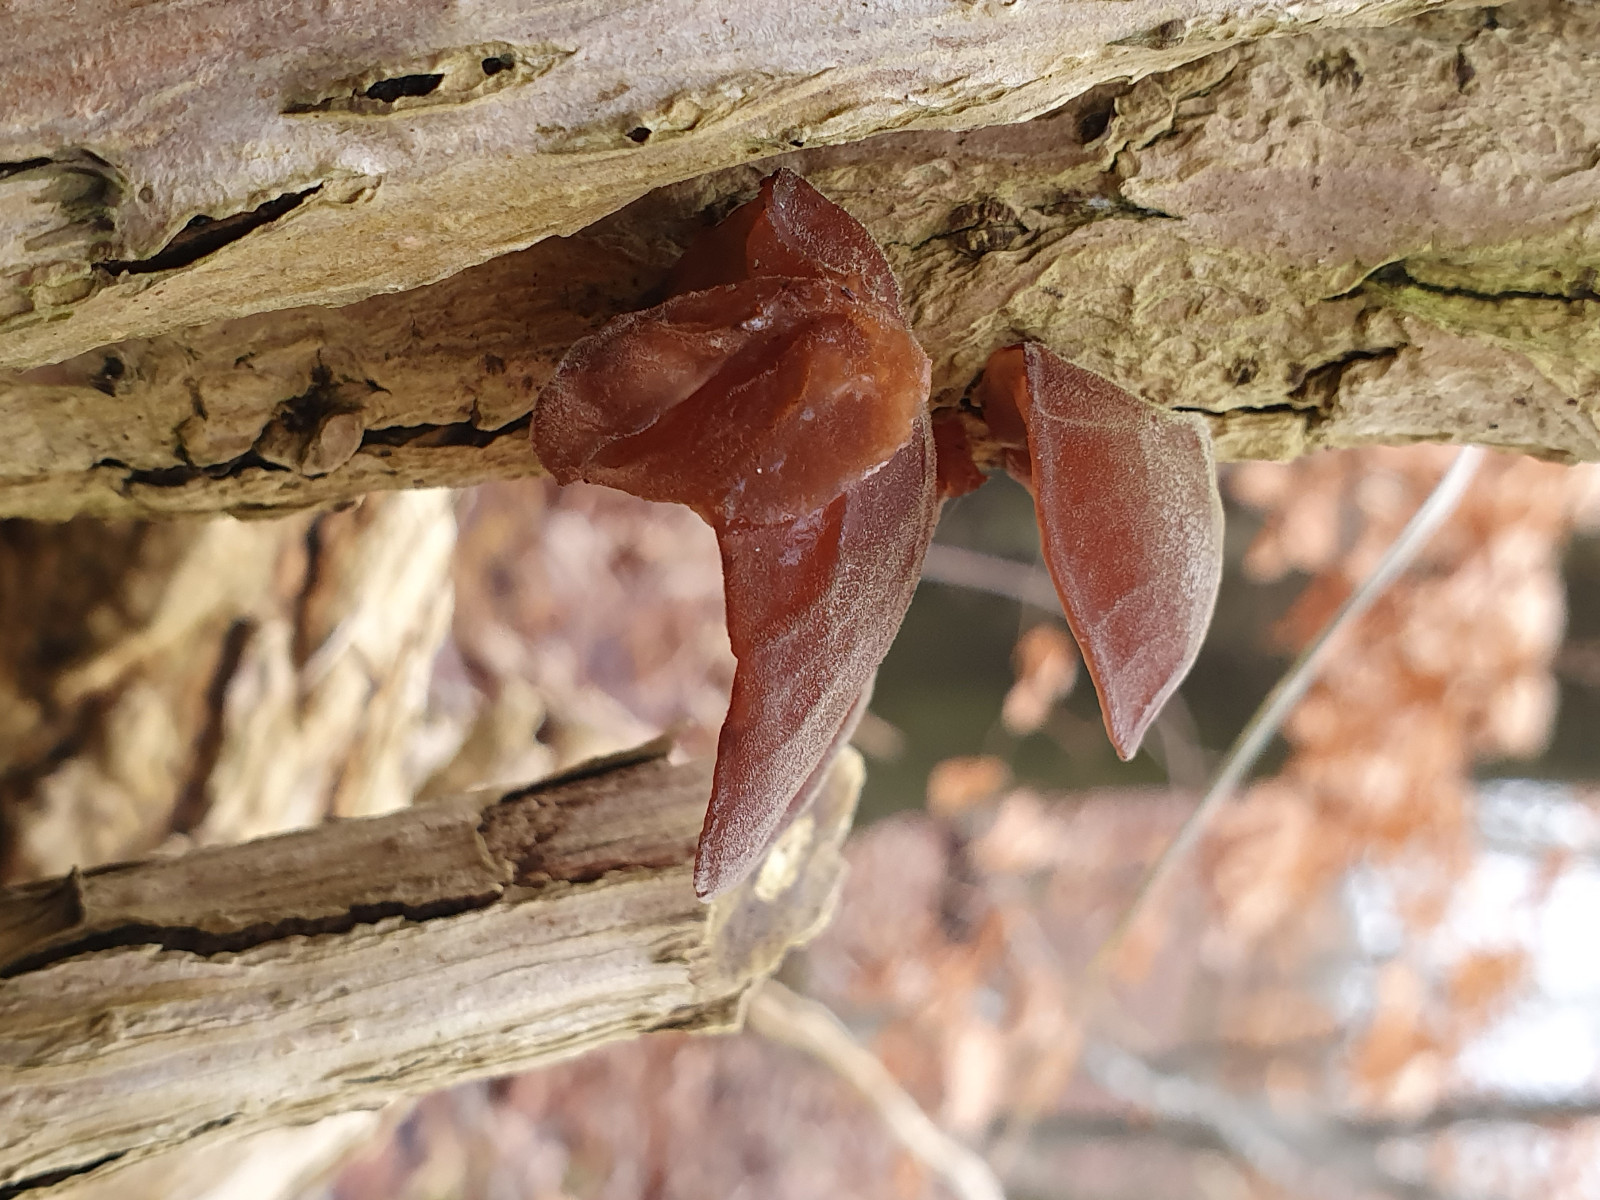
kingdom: Fungi
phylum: Basidiomycota
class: Agaricomycetes
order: Auriculariales
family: Auriculariaceae
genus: Auricularia
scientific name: Auricularia auricula-judae
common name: almindelig judasøre
